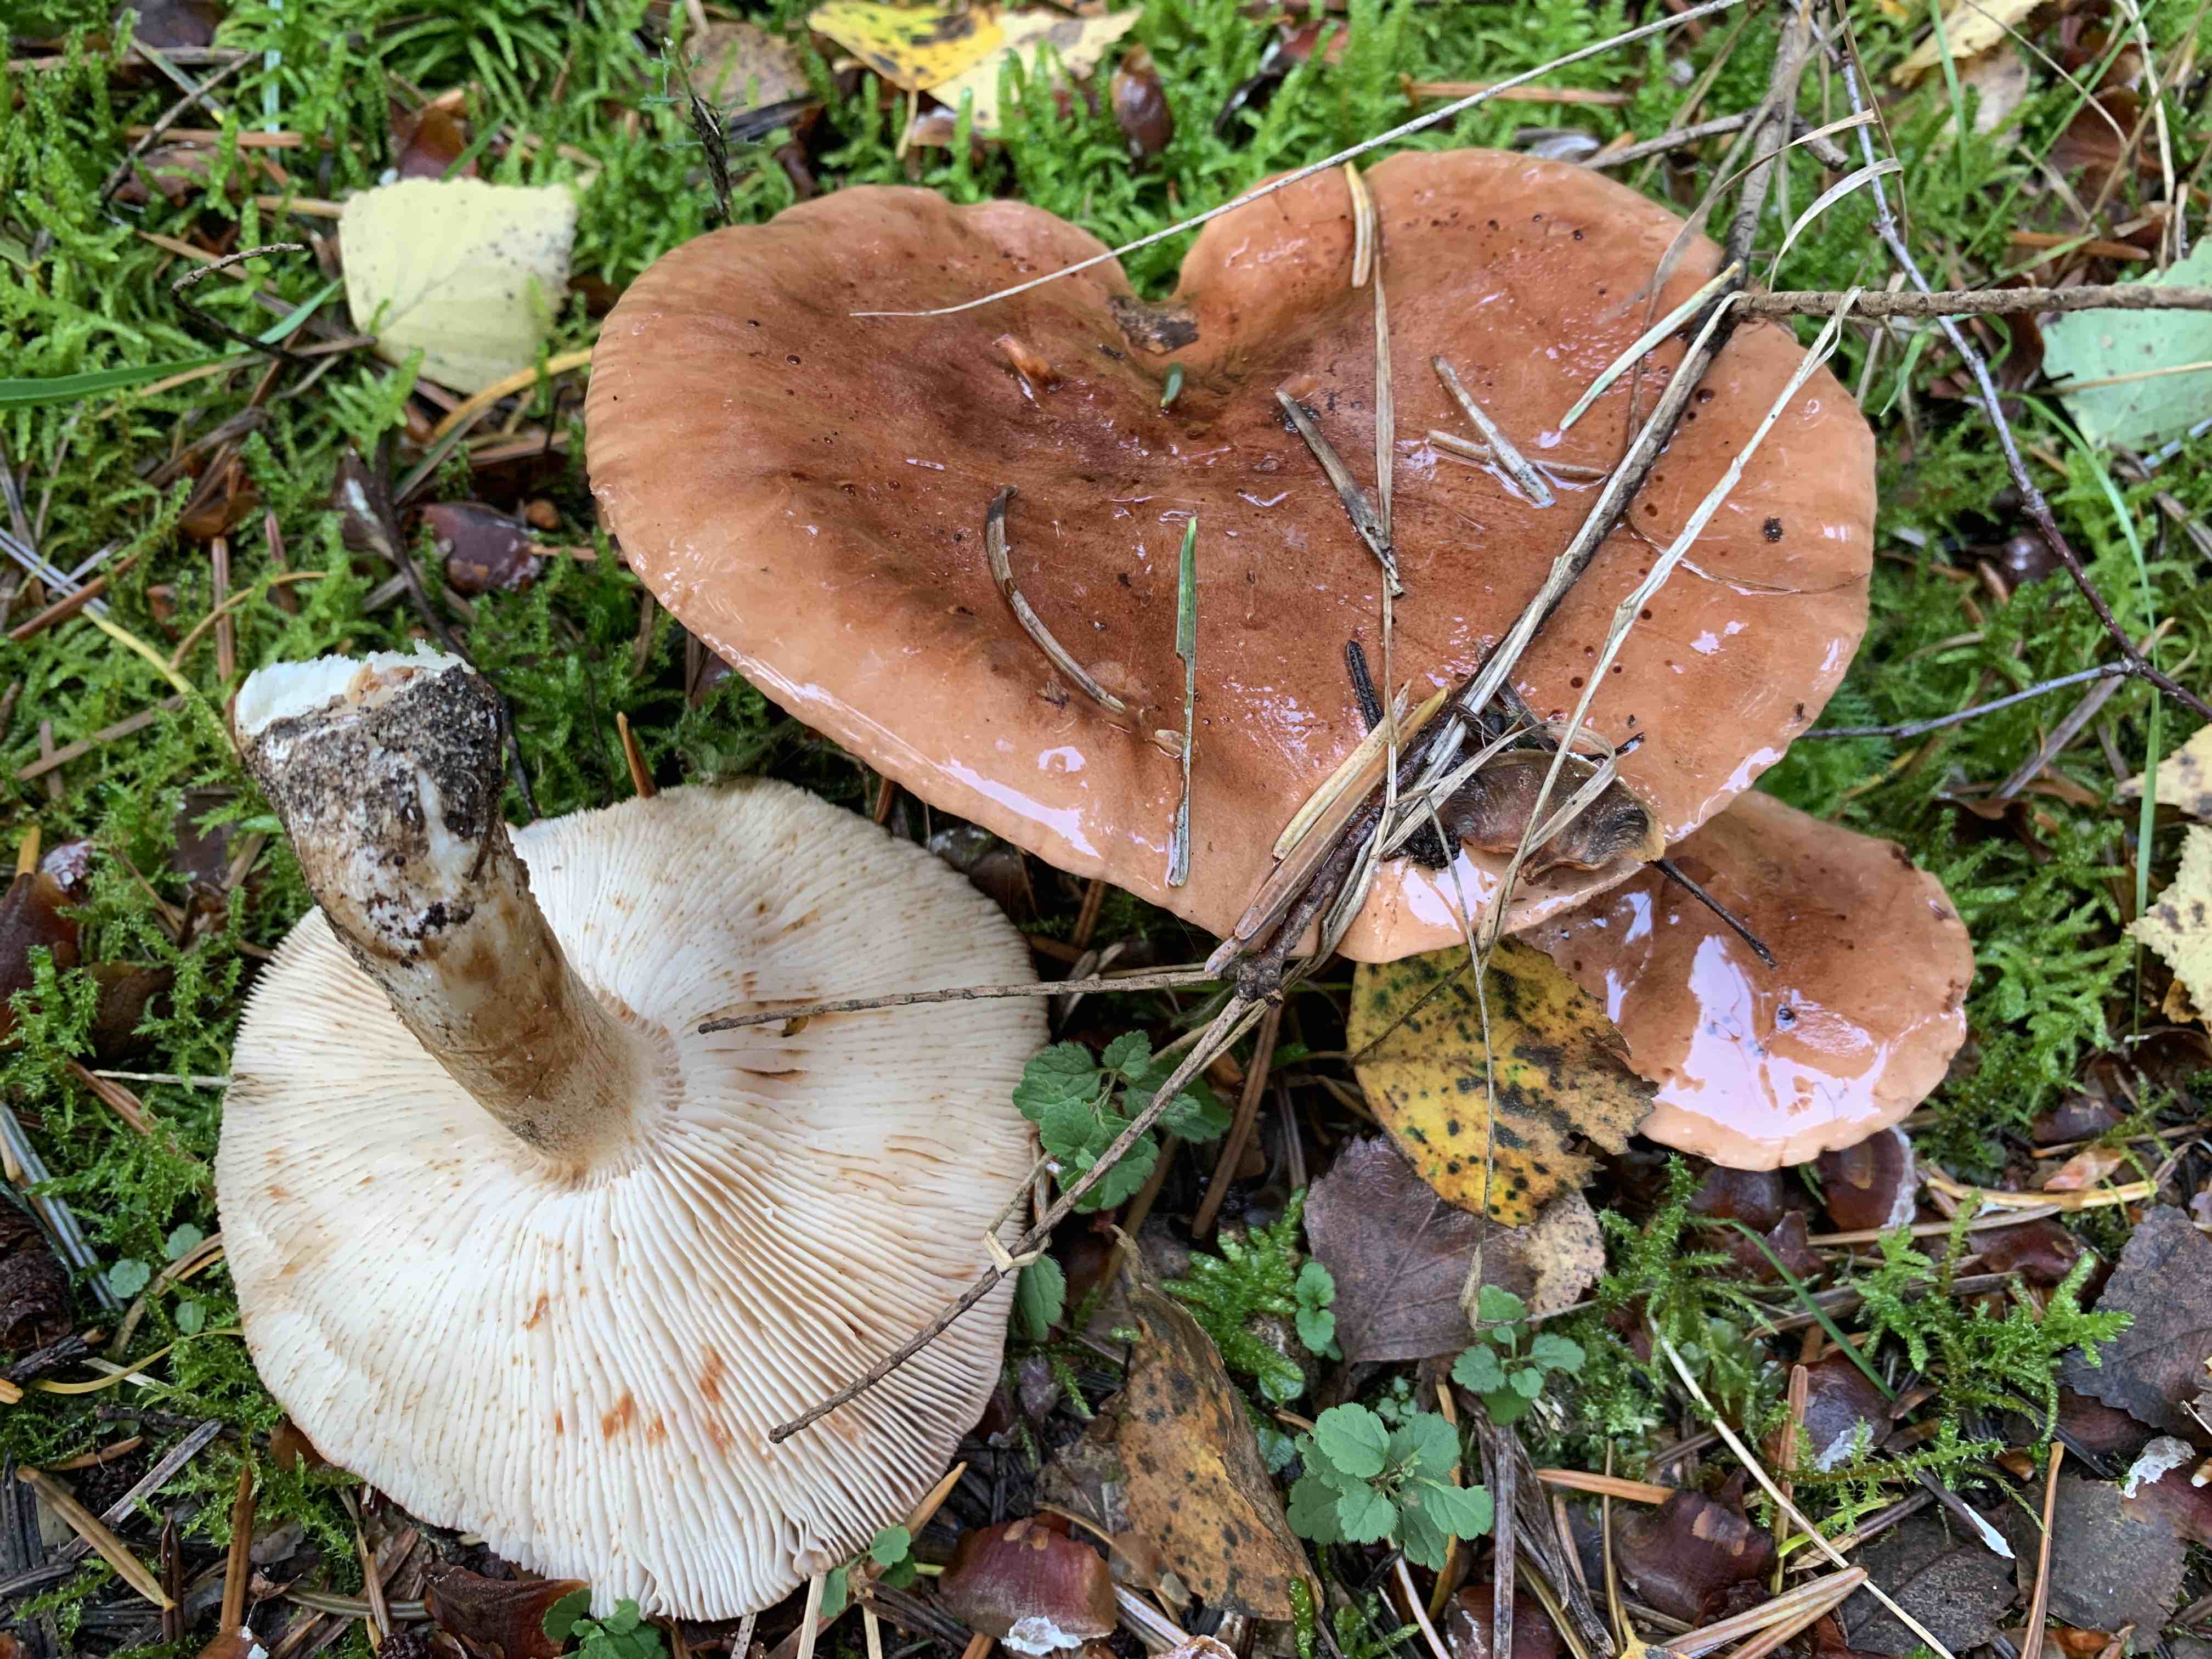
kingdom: Fungi
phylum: Basidiomycota
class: Agaricomycetes
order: Agaricales
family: Tricholomataceae
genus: Tricholoma
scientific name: Tricholoma
